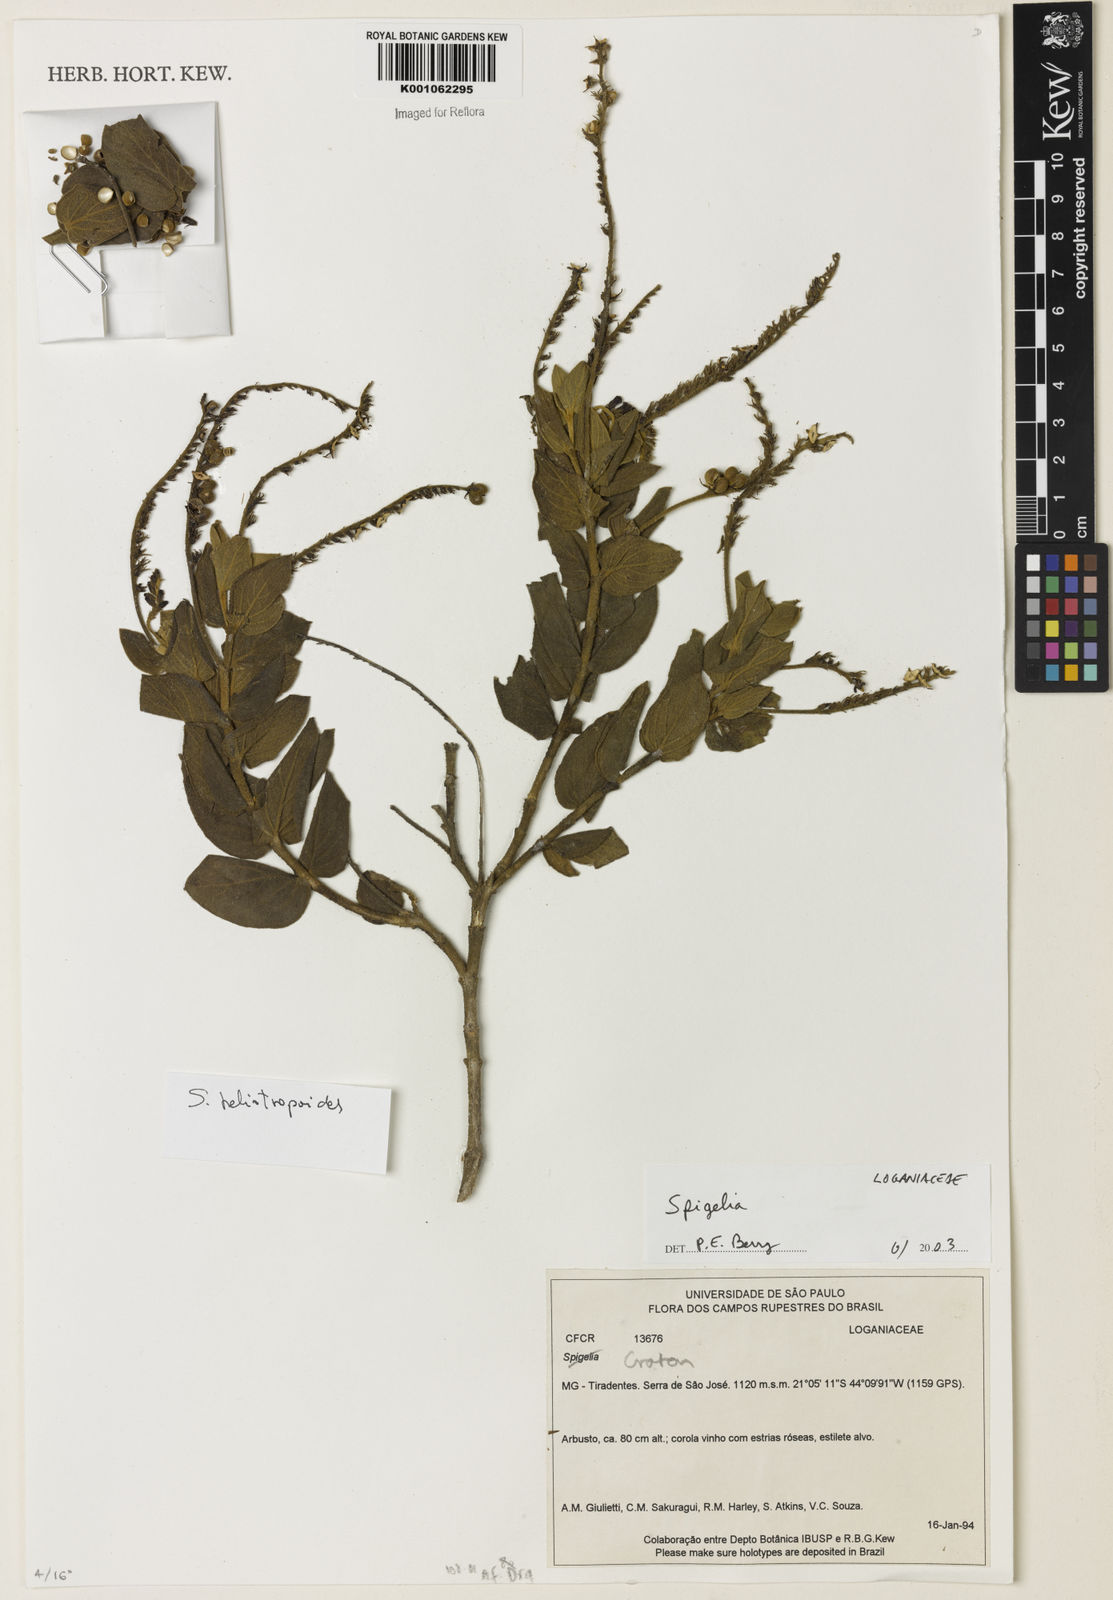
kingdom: Plantae
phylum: Tracheophyta
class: Magnoliopsida
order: Gentianales
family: Loganiaceae
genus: Spigelia
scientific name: Spigelia
